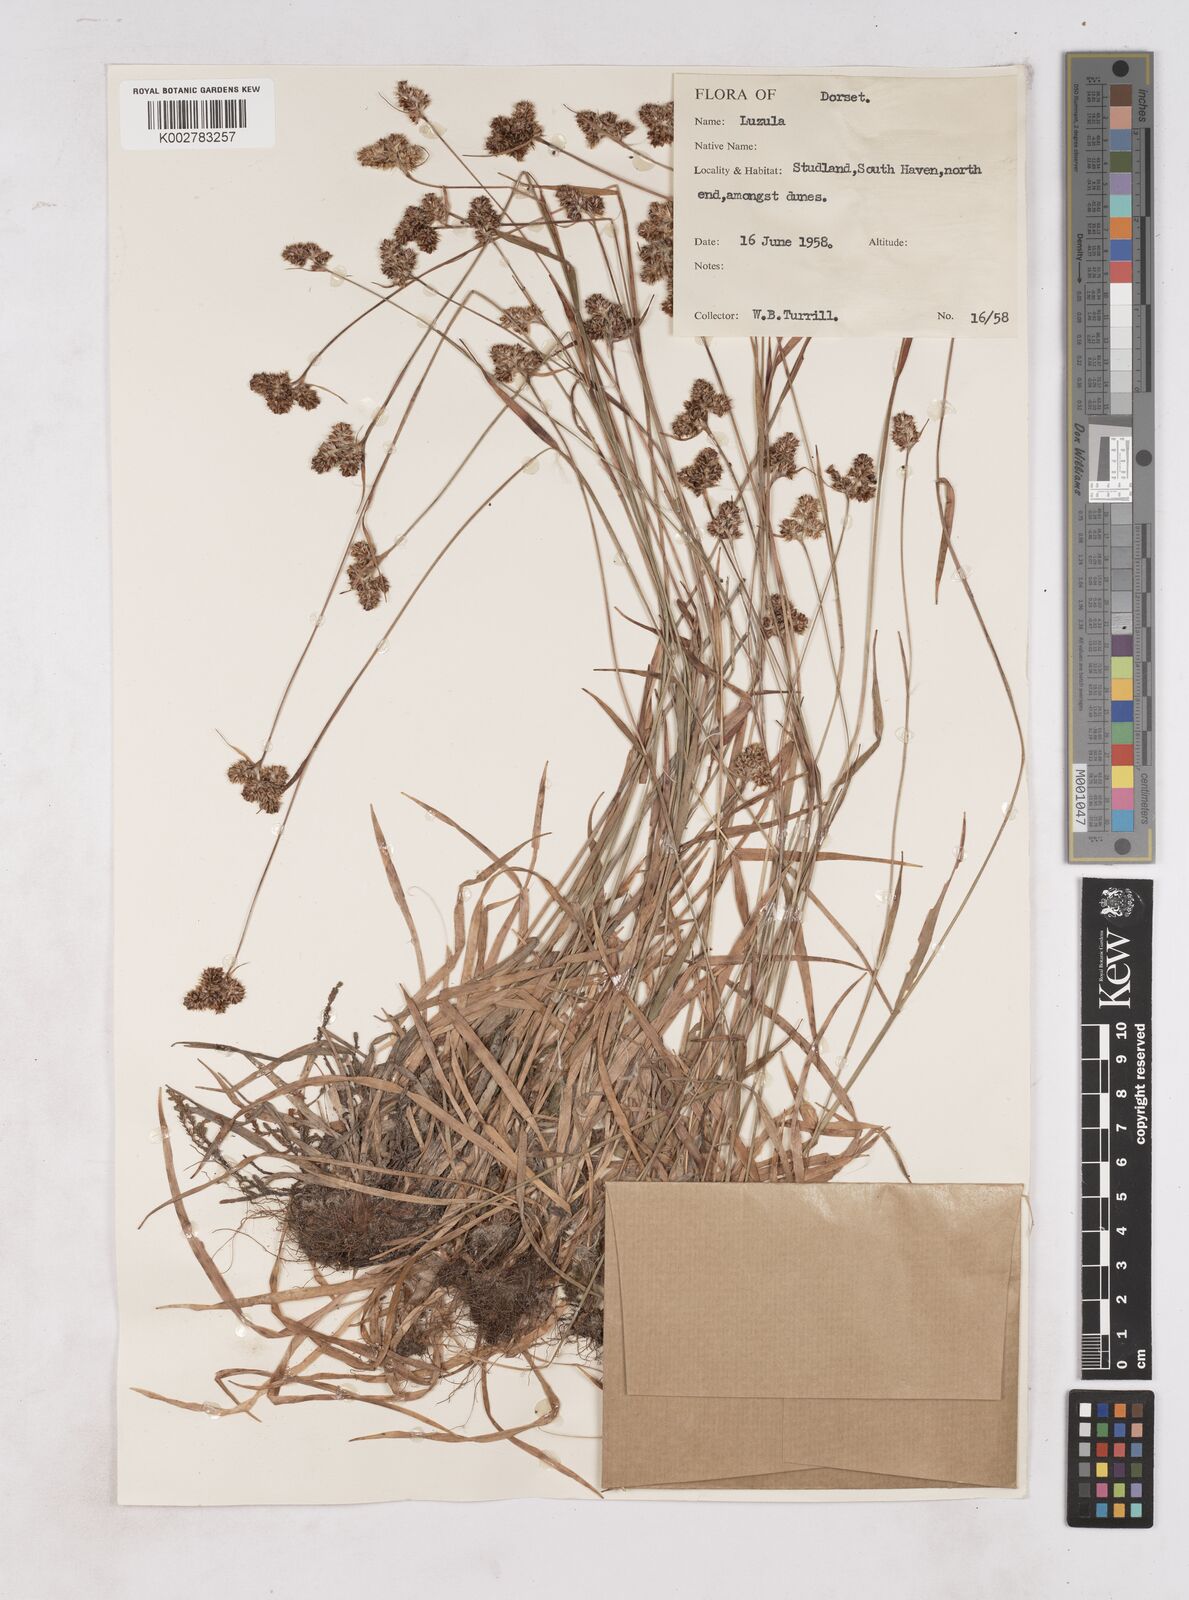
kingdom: Plantae
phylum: Tracheophyta
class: Liliopsida
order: Poales
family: Juncaceae
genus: Luzula
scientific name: Luzula multiflora
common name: Heath wood-rush
